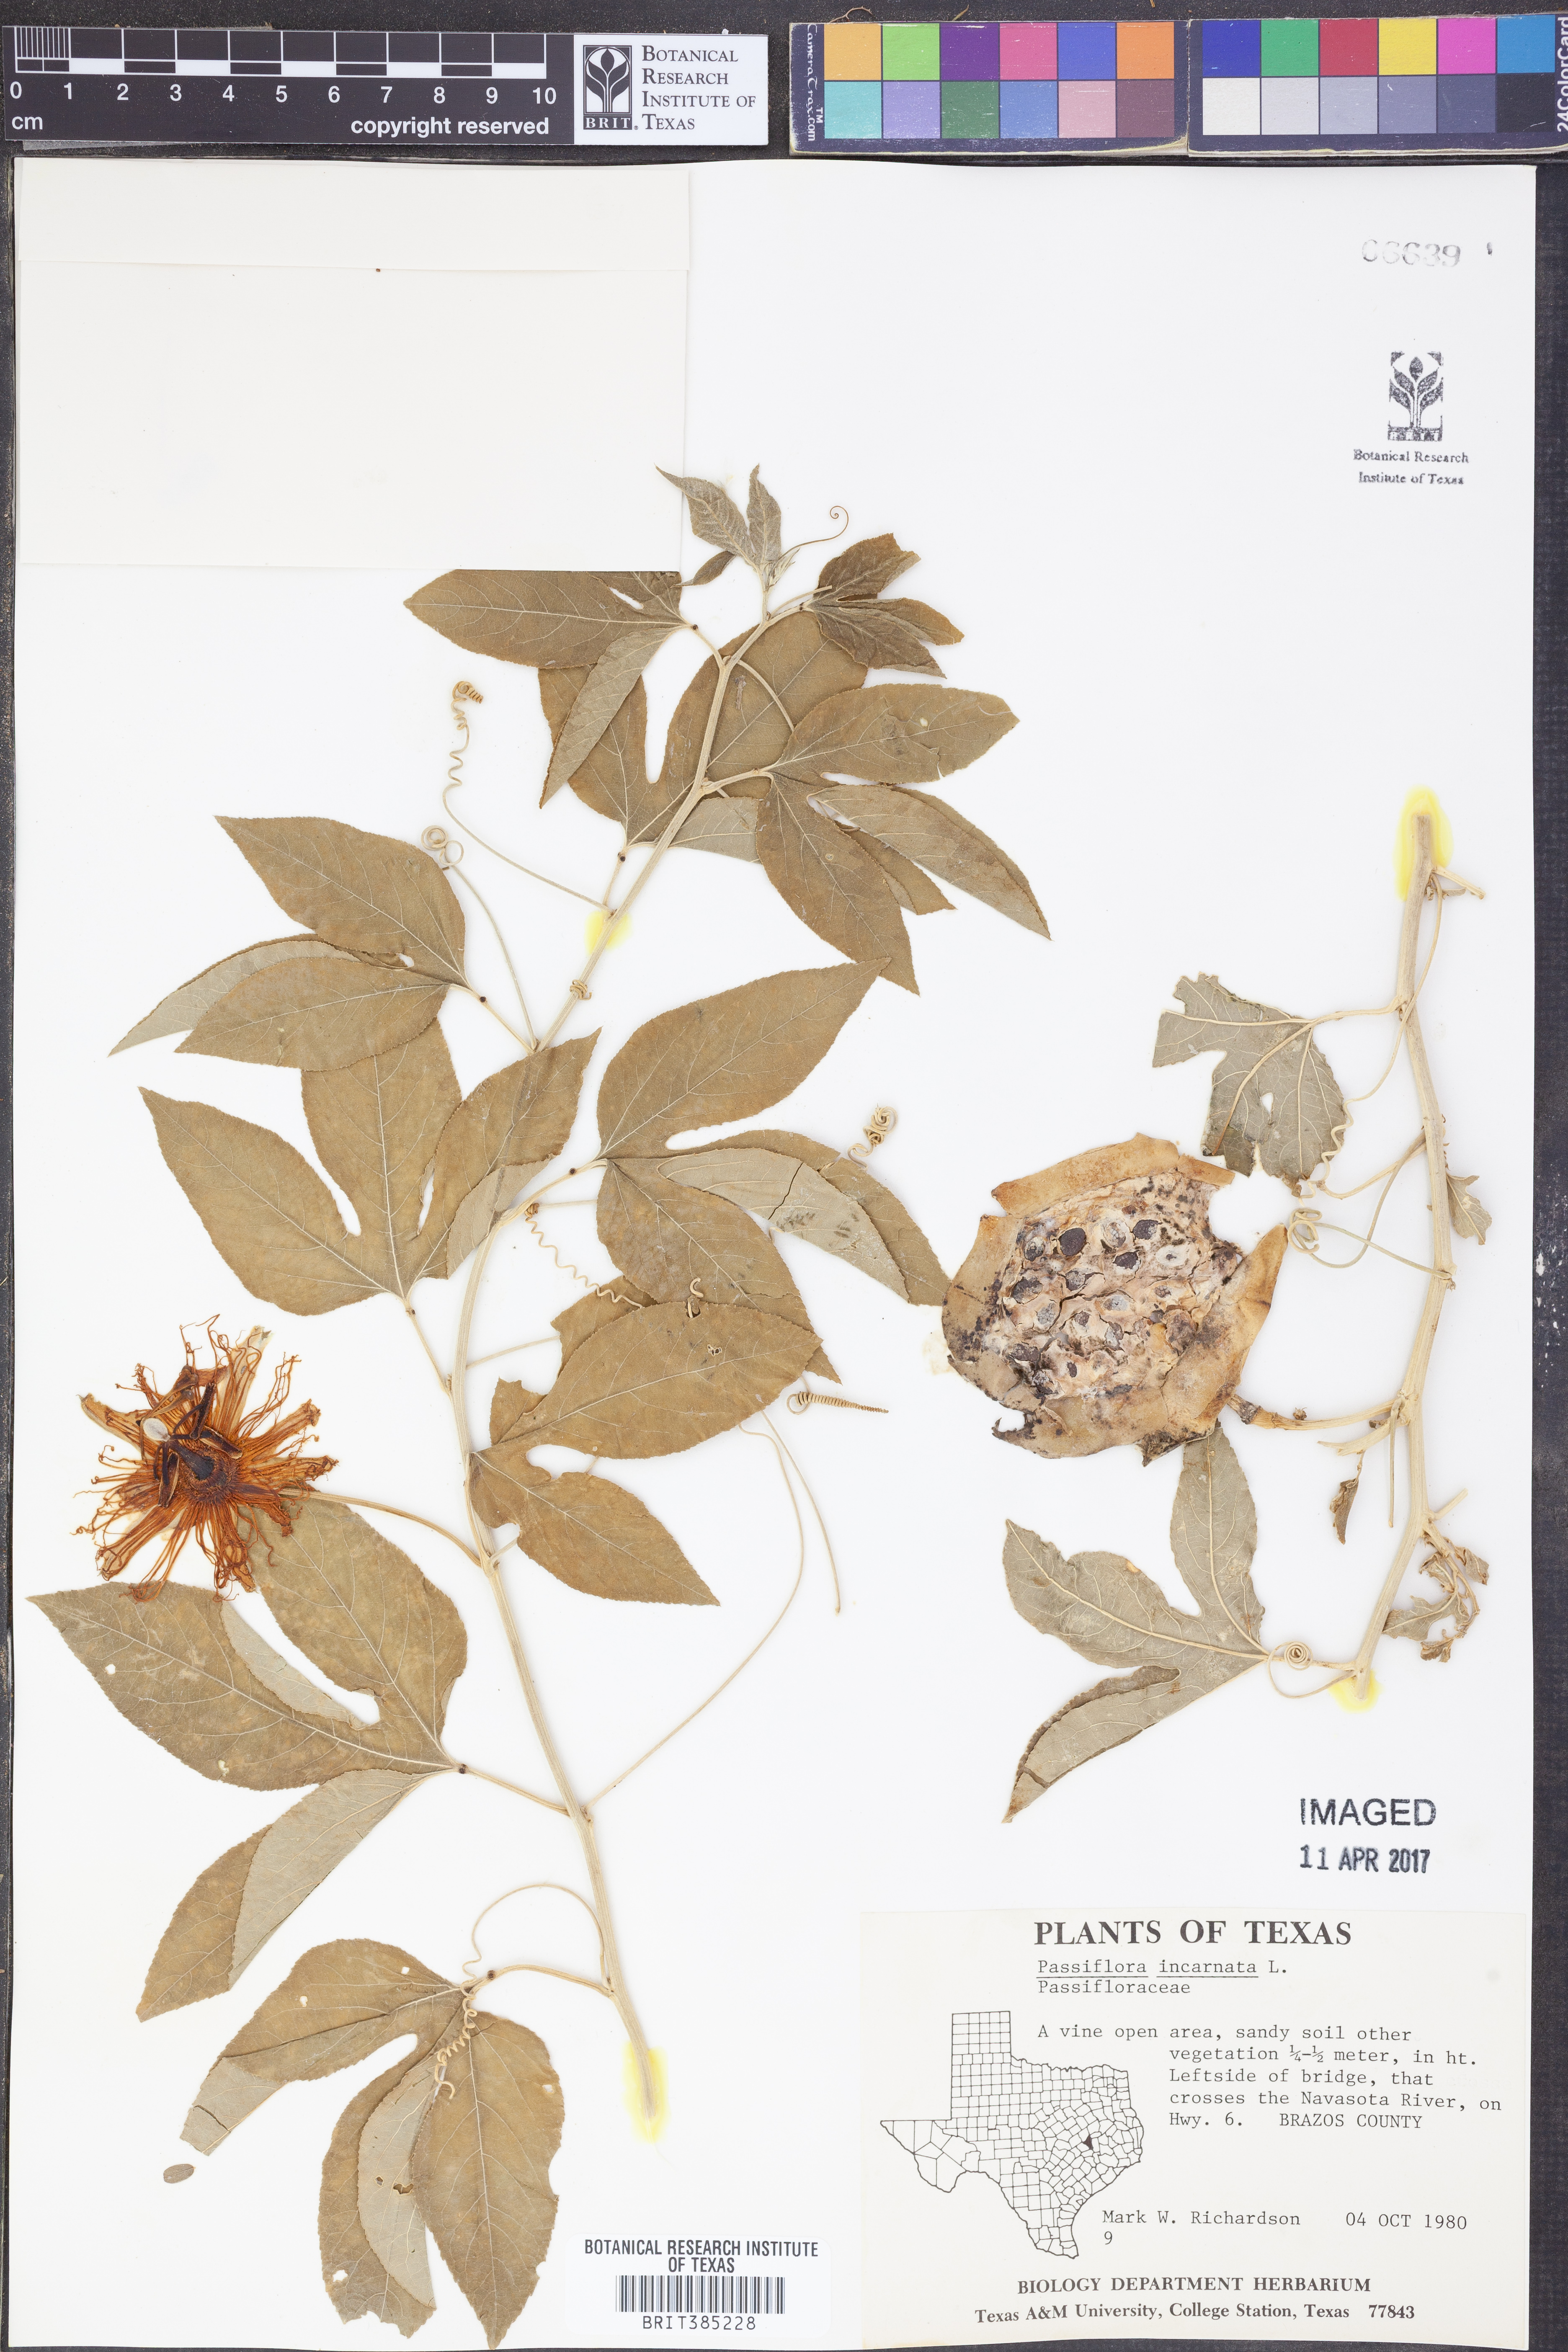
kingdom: Plantae
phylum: Tracheophyta
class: Magnoliopsida
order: Malpighiales
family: Passifloraceae
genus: Passiflora
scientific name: Passiflora incarnata
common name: Apricot-vine
